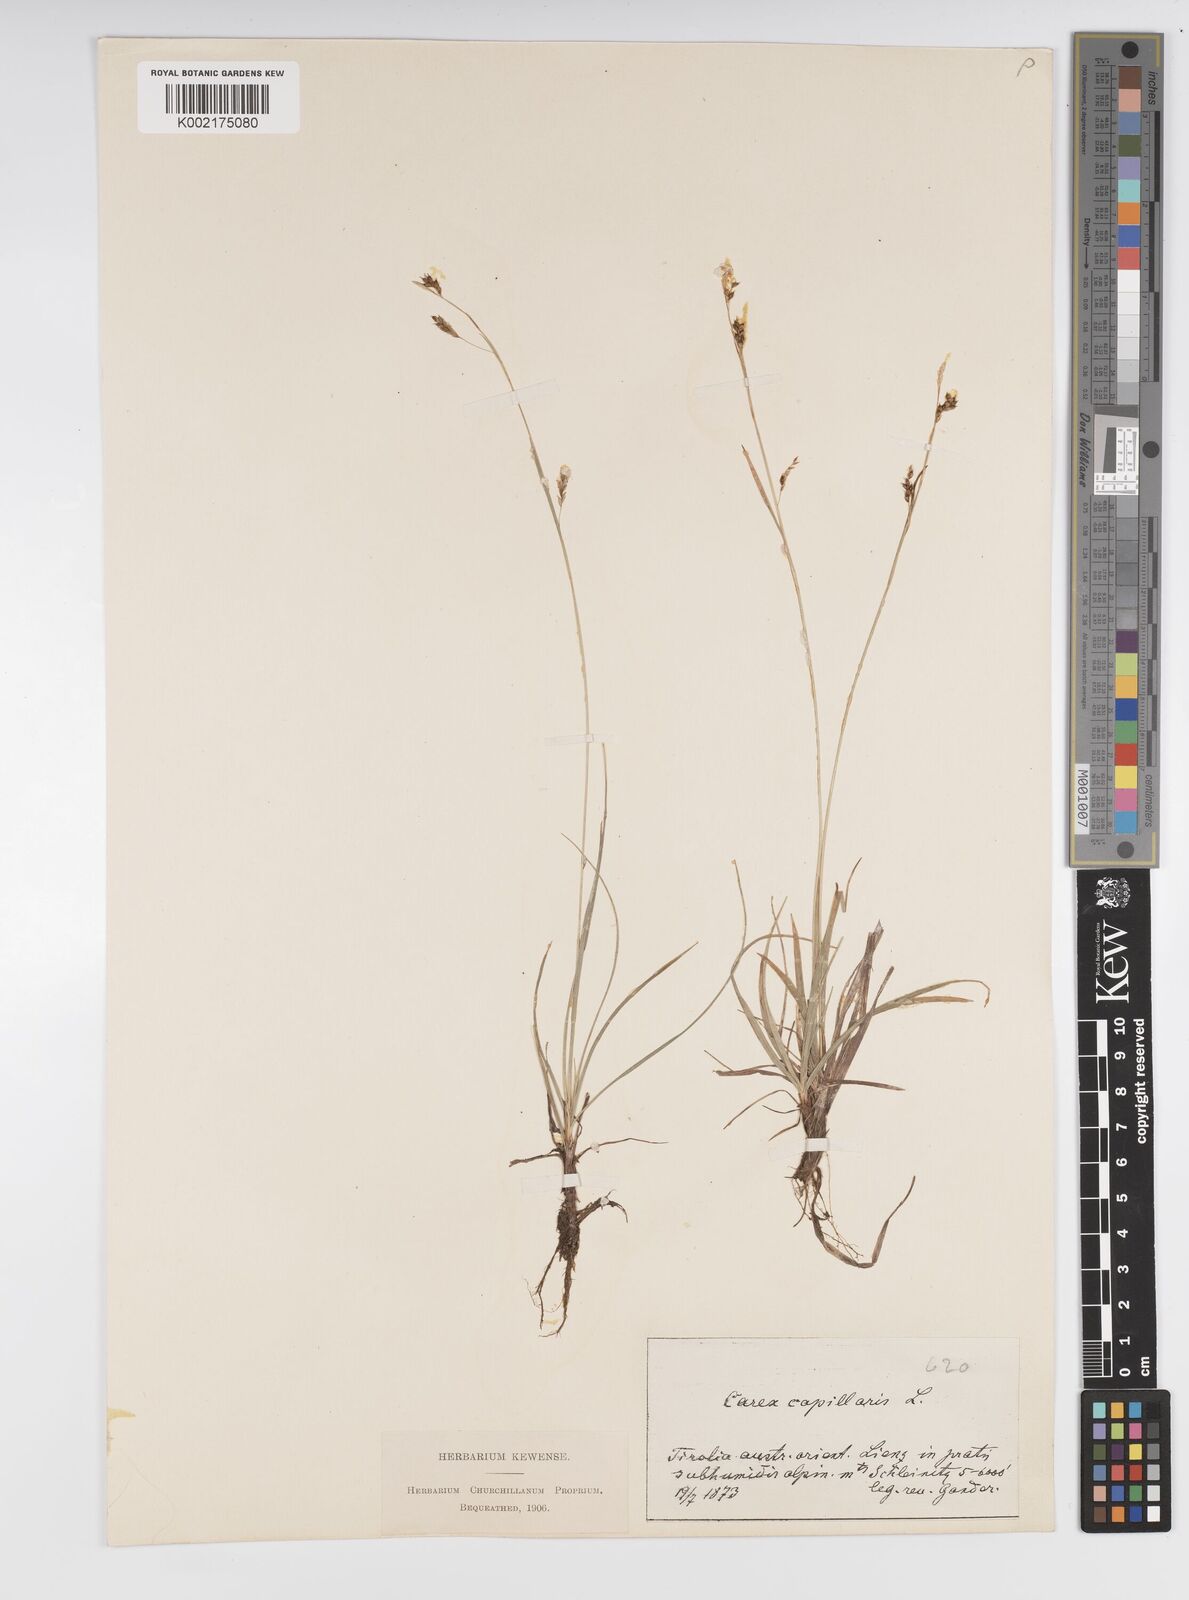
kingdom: Plantae
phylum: Tracheophyta
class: Liliopsida
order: Poales
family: Cyperaceae
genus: Carex
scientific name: Carex capillaris
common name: Hair sedge
